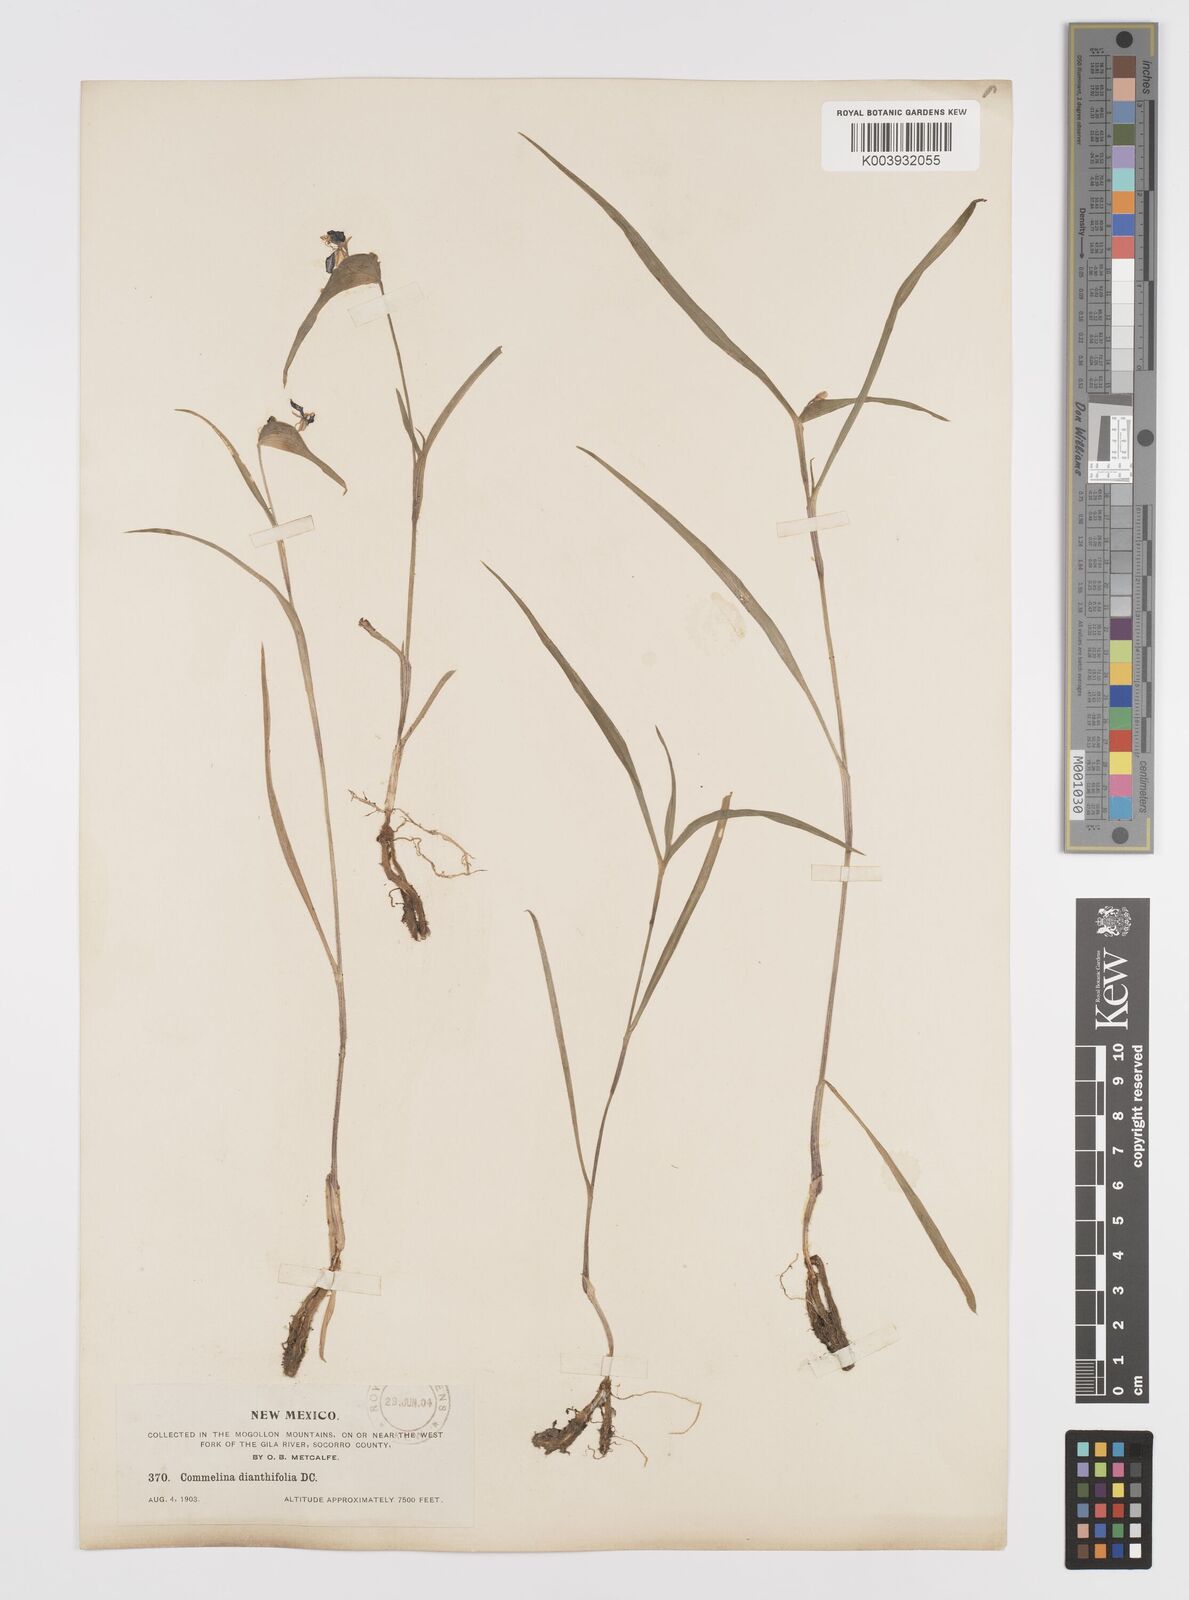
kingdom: Plantae
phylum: Tracheophyta
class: Liliopsida
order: Commelinales
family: Commelinaceae
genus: Commelina
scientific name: Commelina dianthifolia
